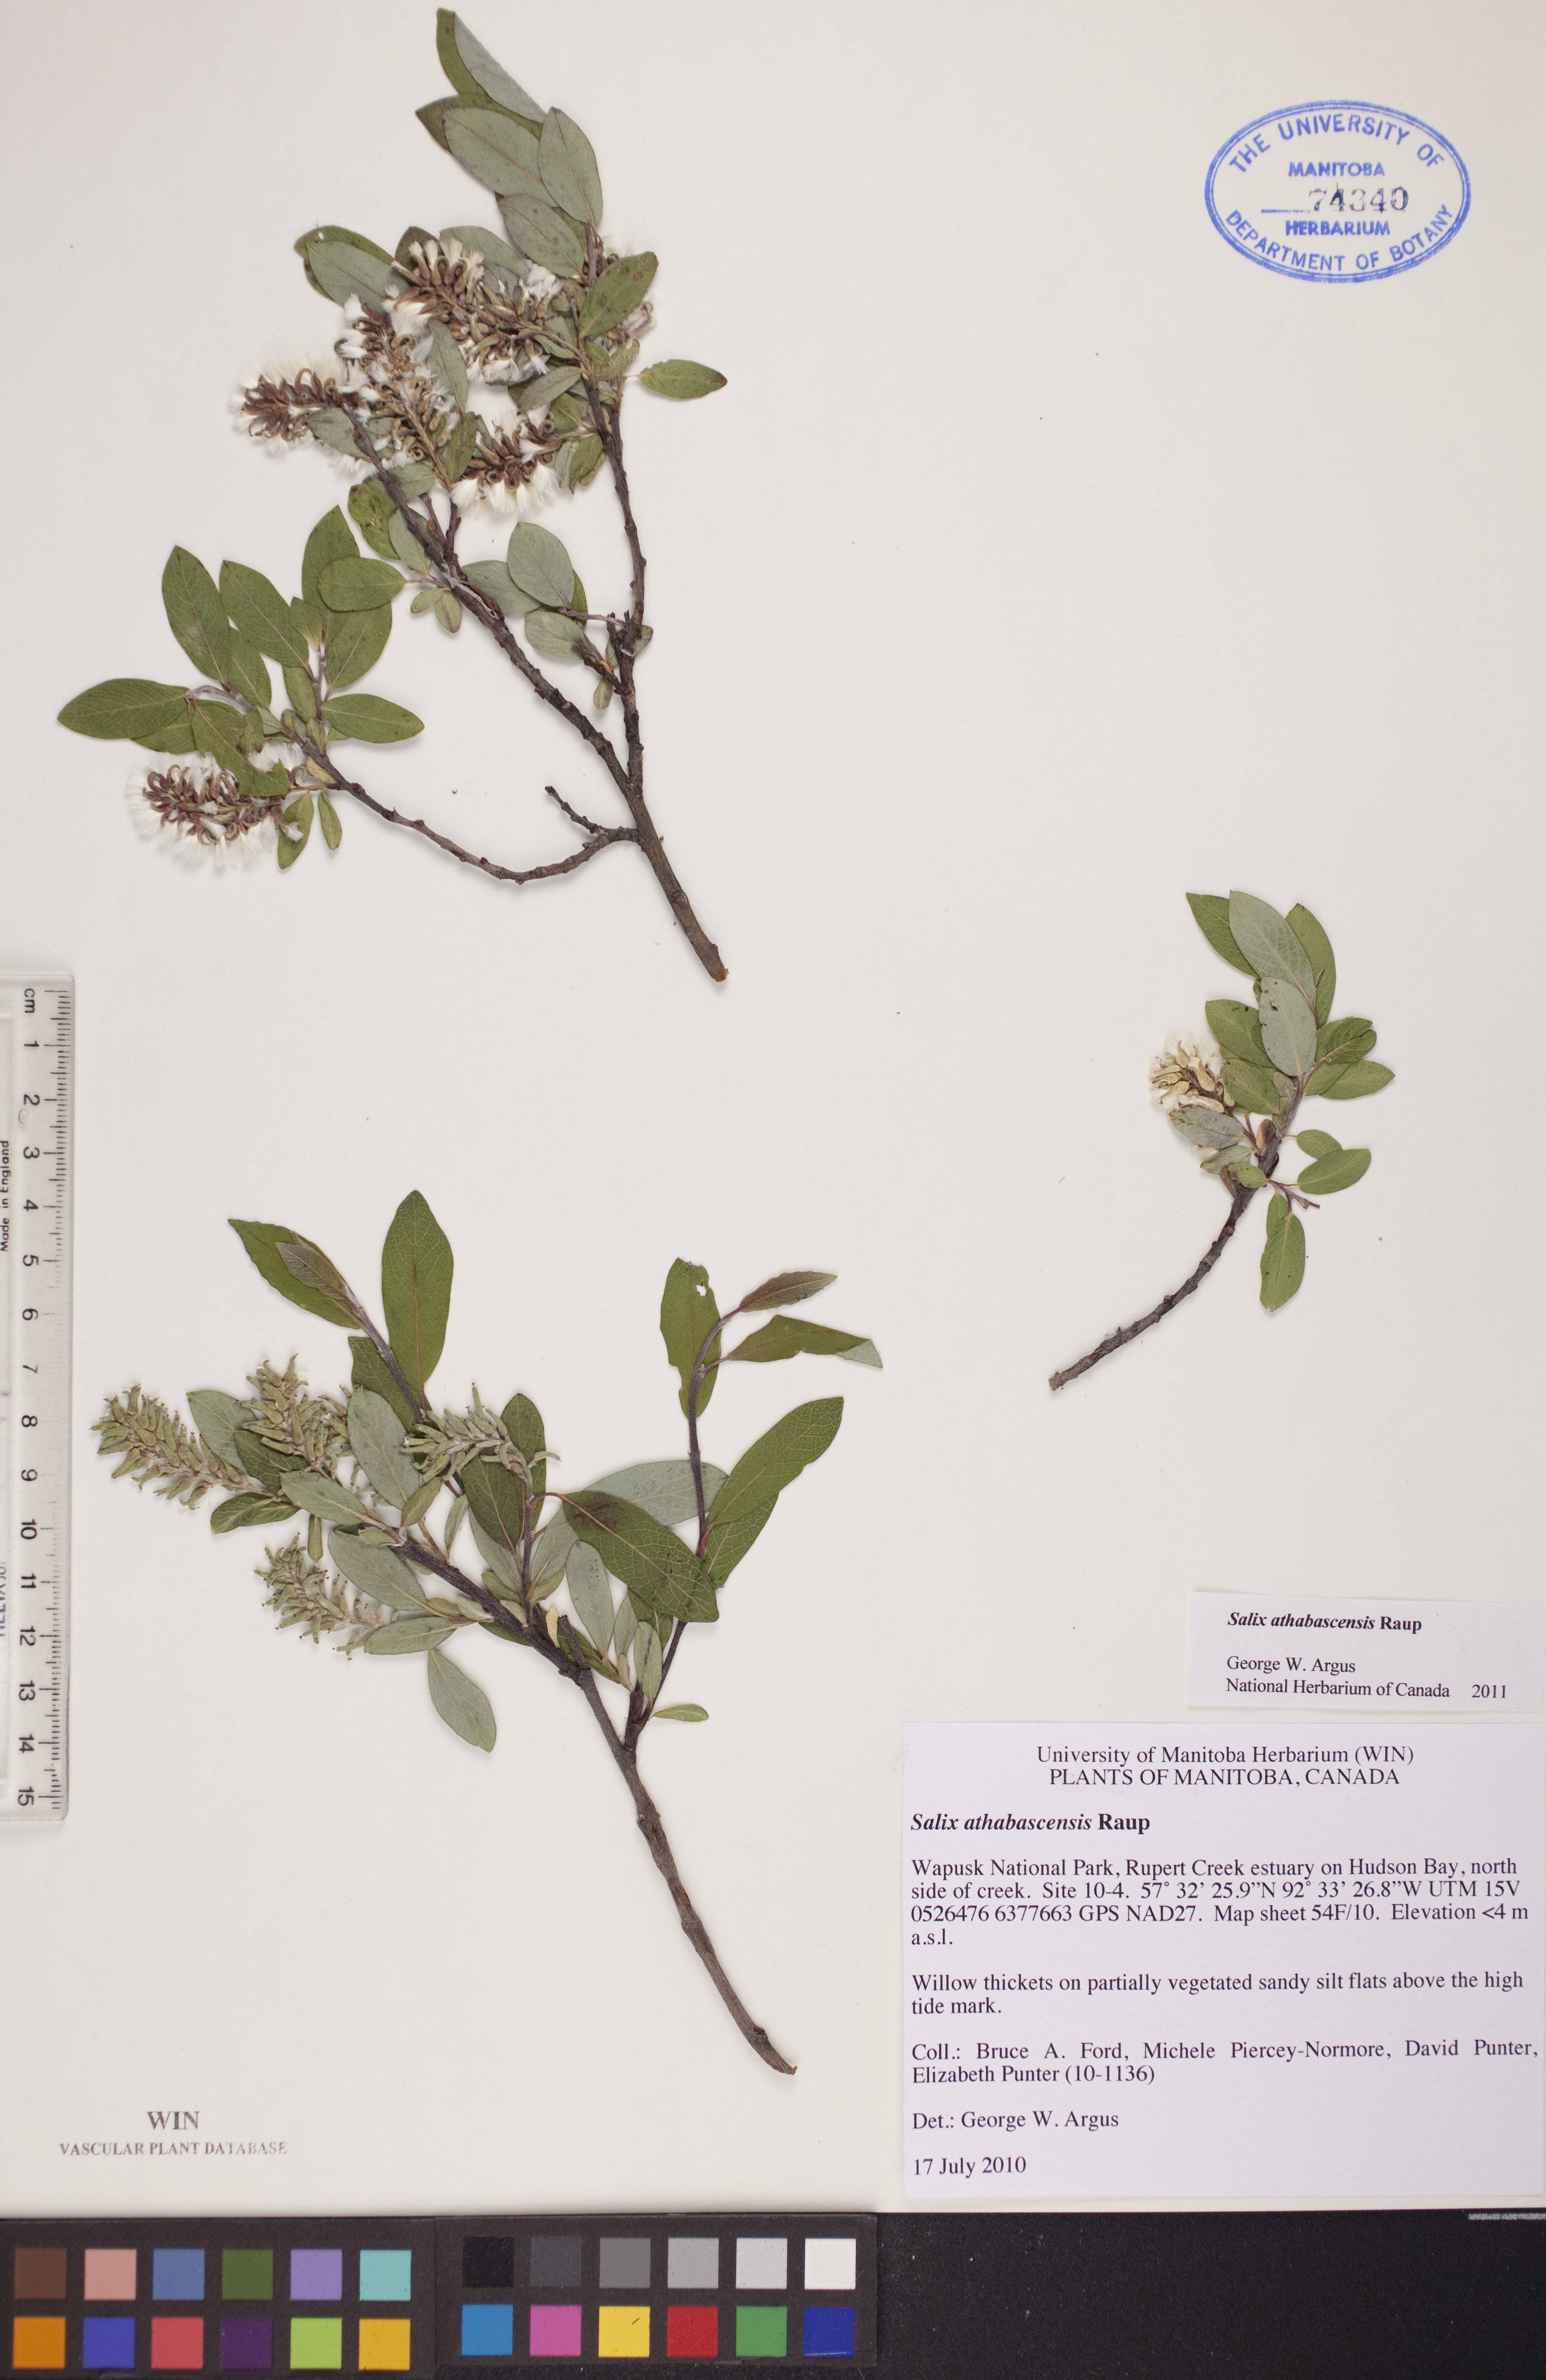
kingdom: Plantae
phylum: Tracheophyta
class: Magnoliopsida
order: Malpighiales
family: Salicaceae
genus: Salix
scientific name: Salix athabascensis
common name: Athabasca willow
